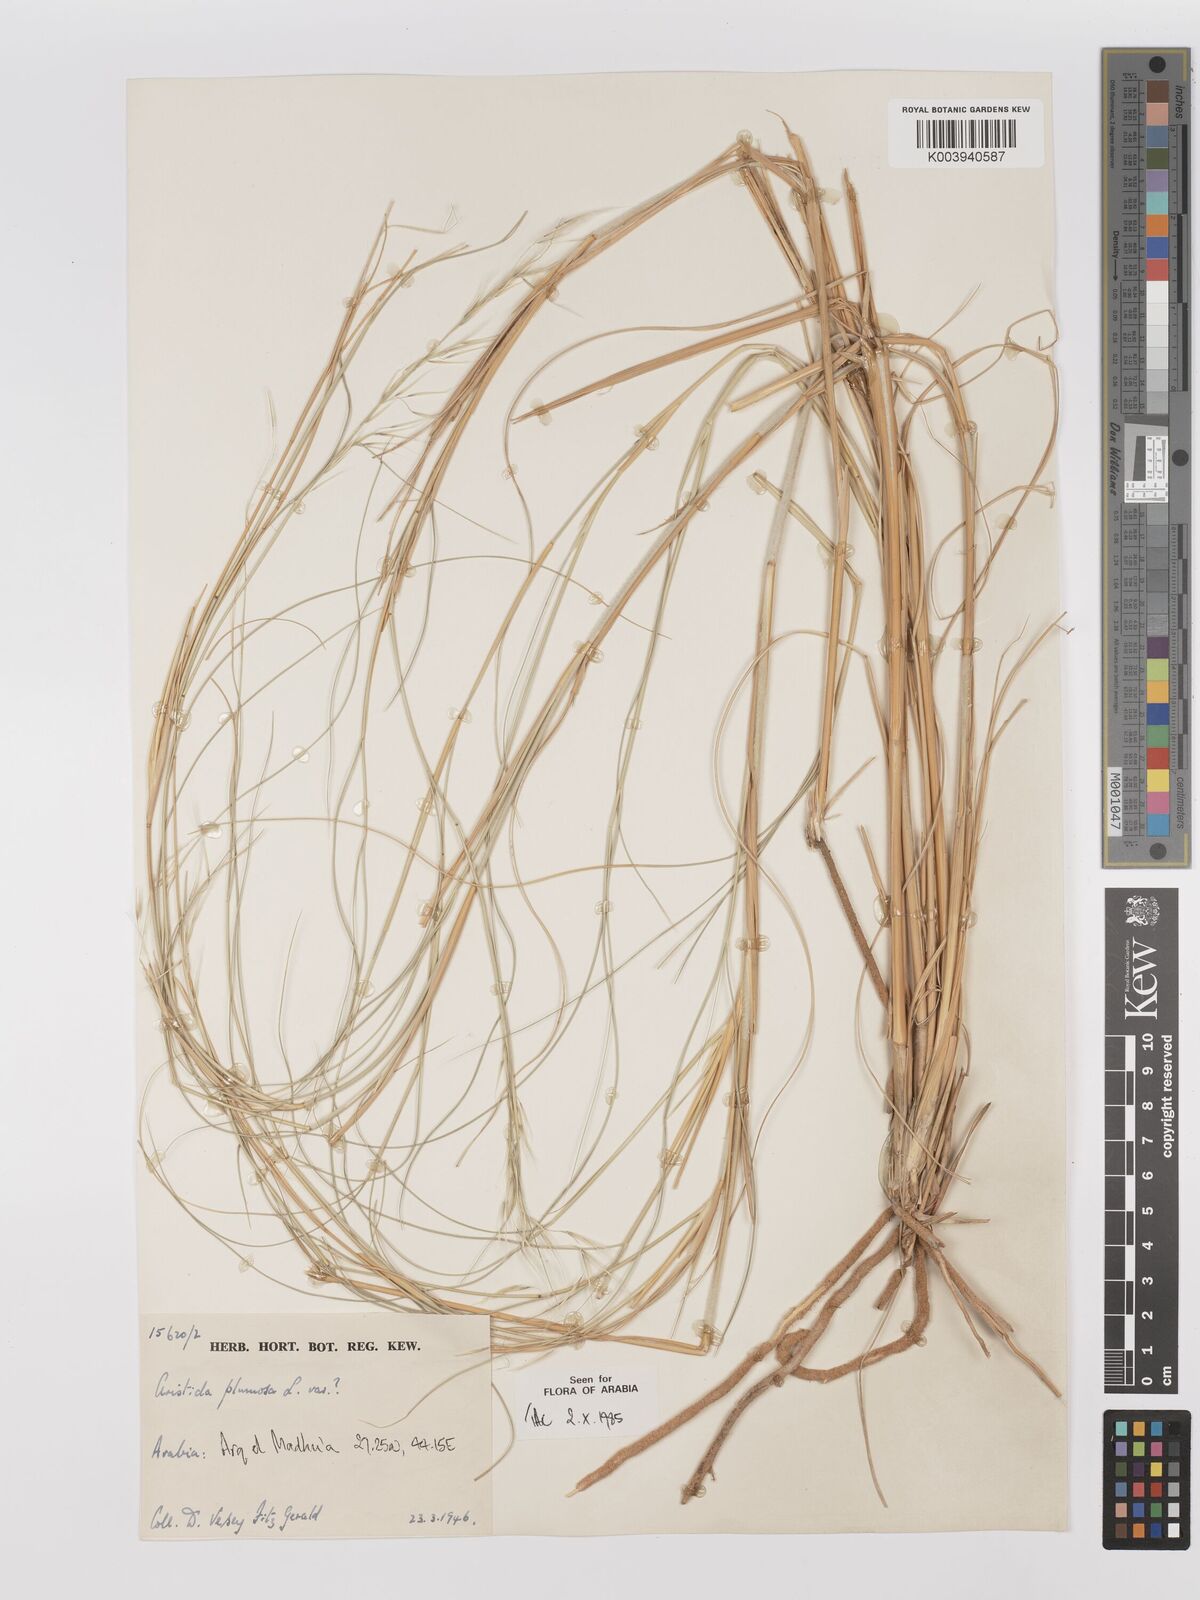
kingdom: Plantae
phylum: Tracheophyta
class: Liliopsida
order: Poales
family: Poaceae
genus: Stipagrostis
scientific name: Stipagrostis plumosa
